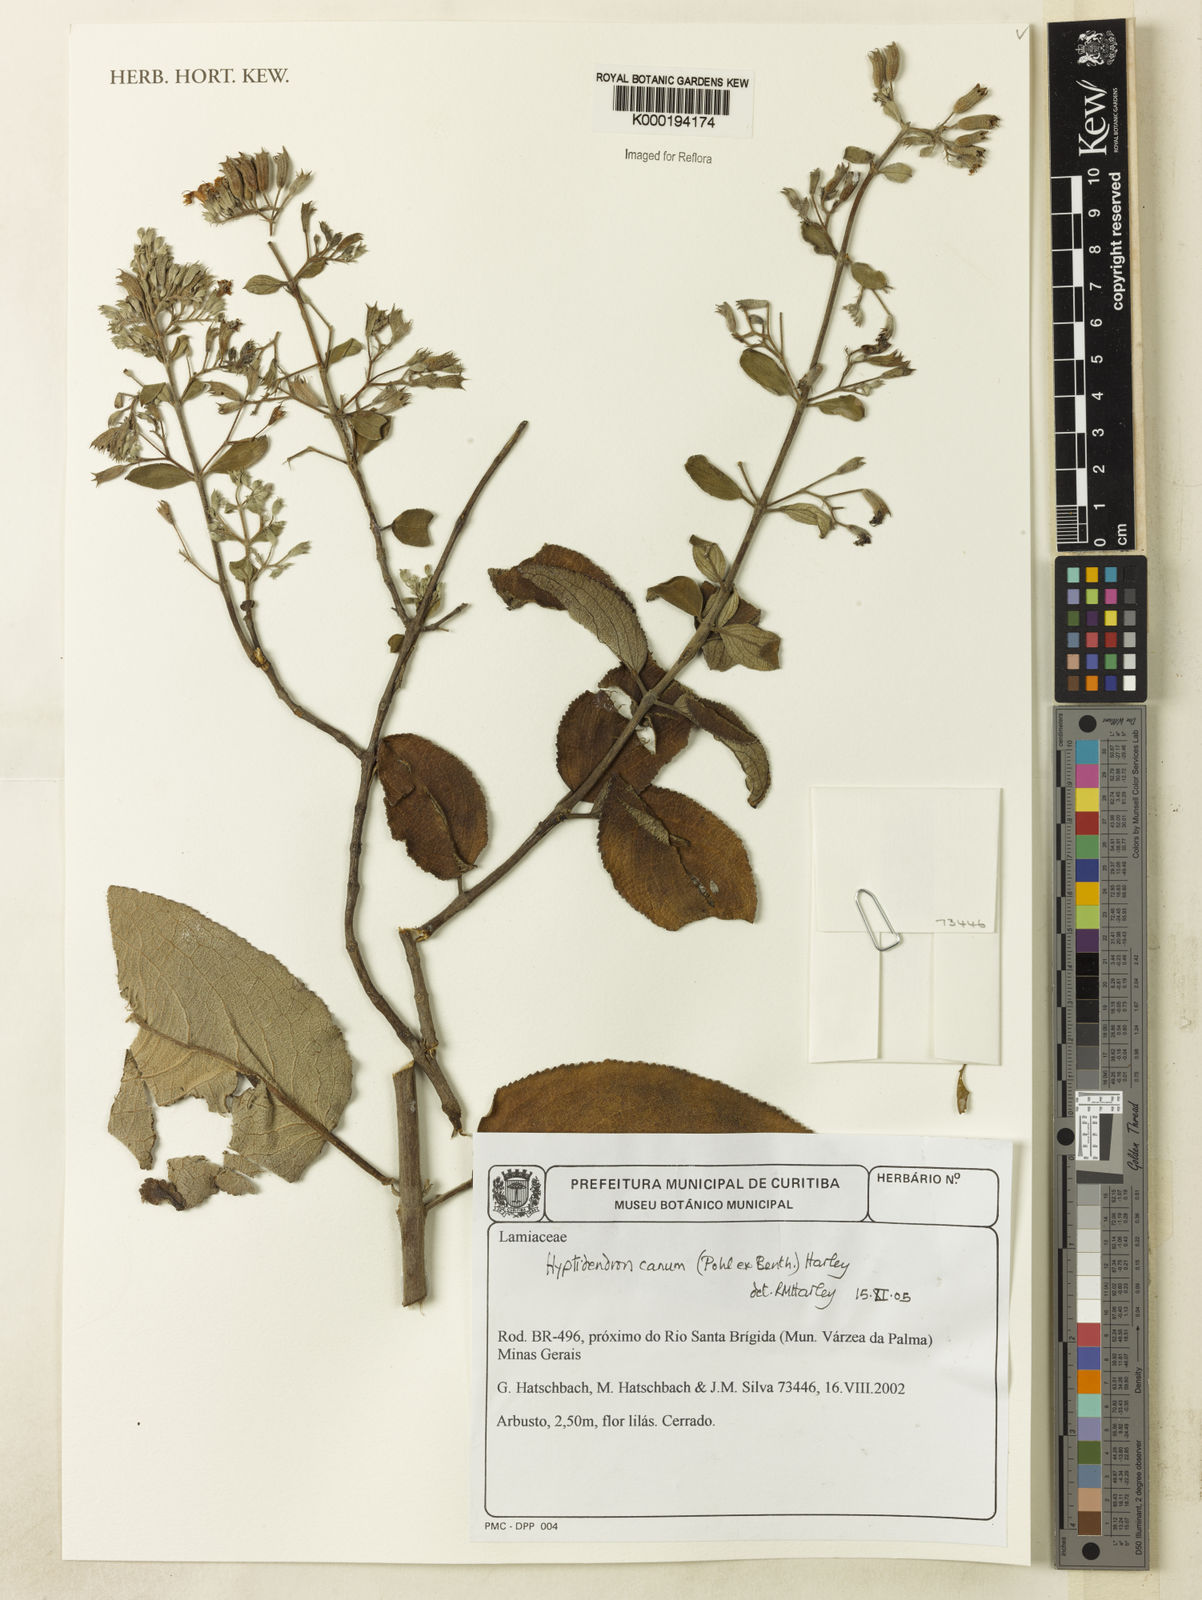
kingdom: Plantae
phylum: Tracheophyta
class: Magnoliopsida
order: Lamiales
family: Lamiaceae
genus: Hyptidendron
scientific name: Hyptidendron canum
